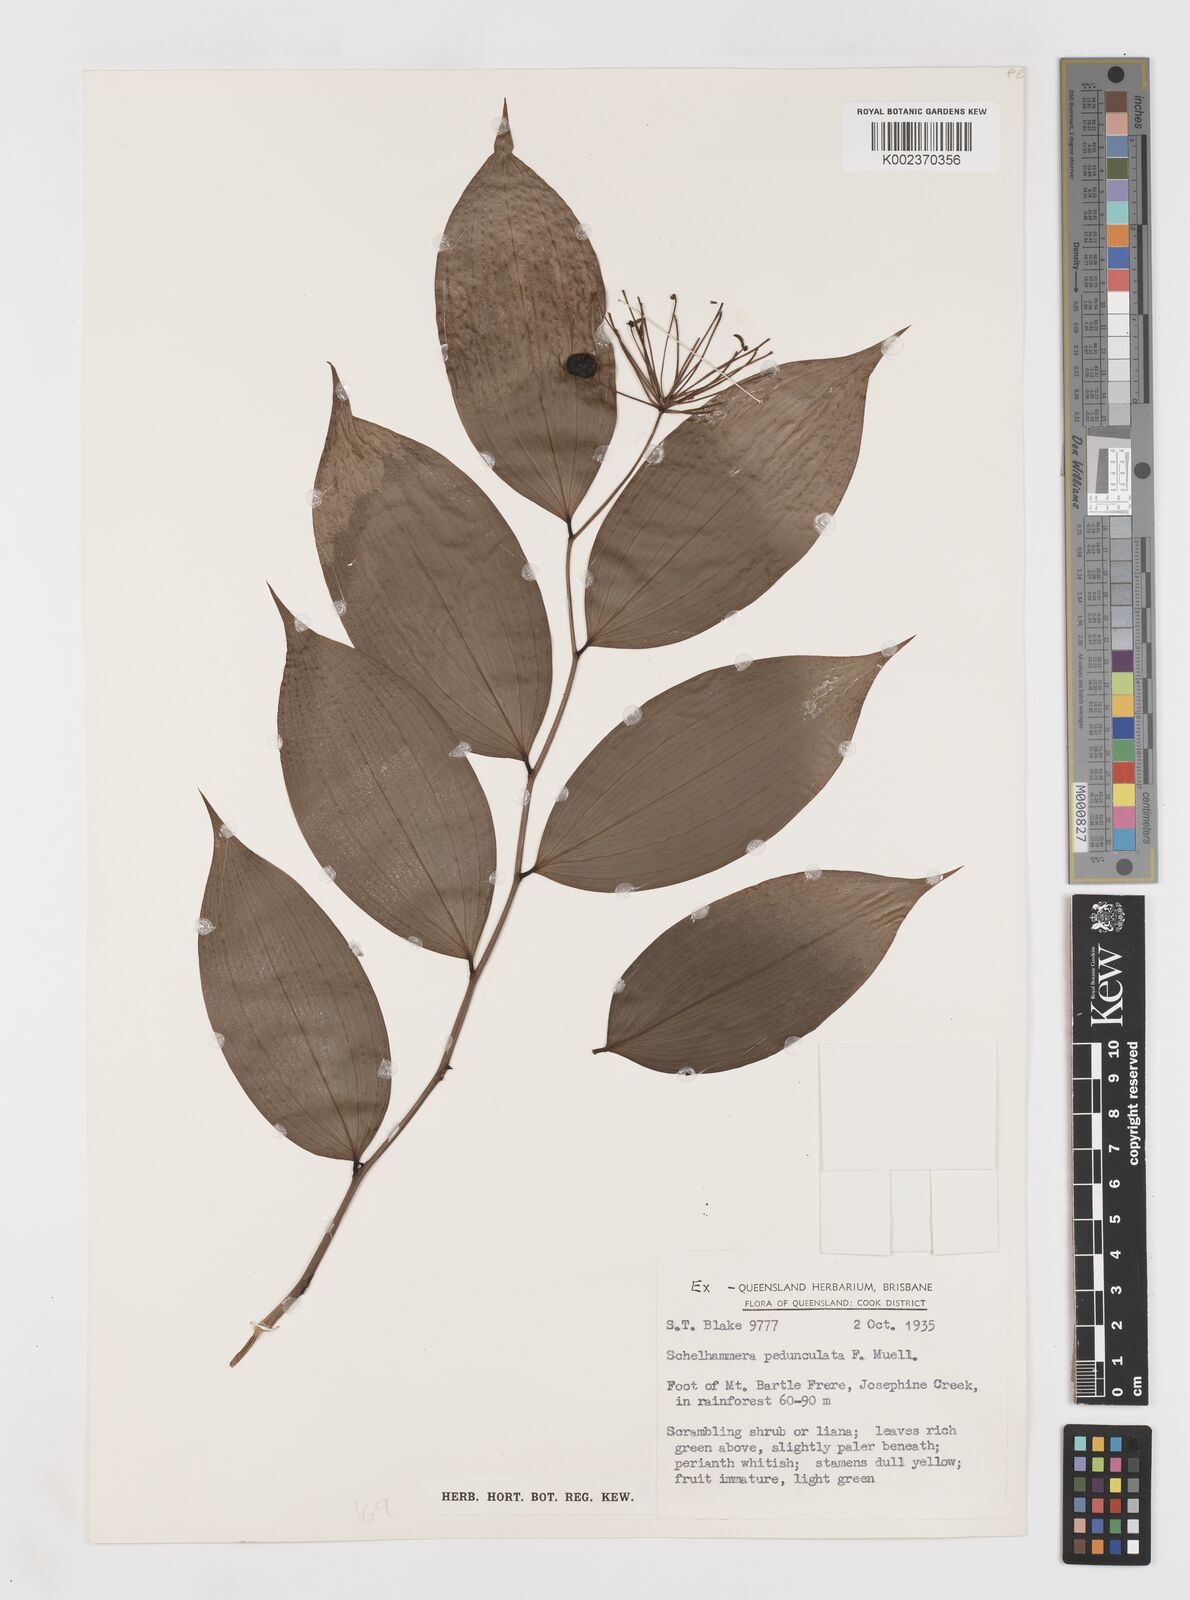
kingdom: Plantae
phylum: Tracheophyta
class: Liliopsida
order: Liliales
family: Colchicaceae
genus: Kuntheria
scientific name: Kuntheria pedunculata
